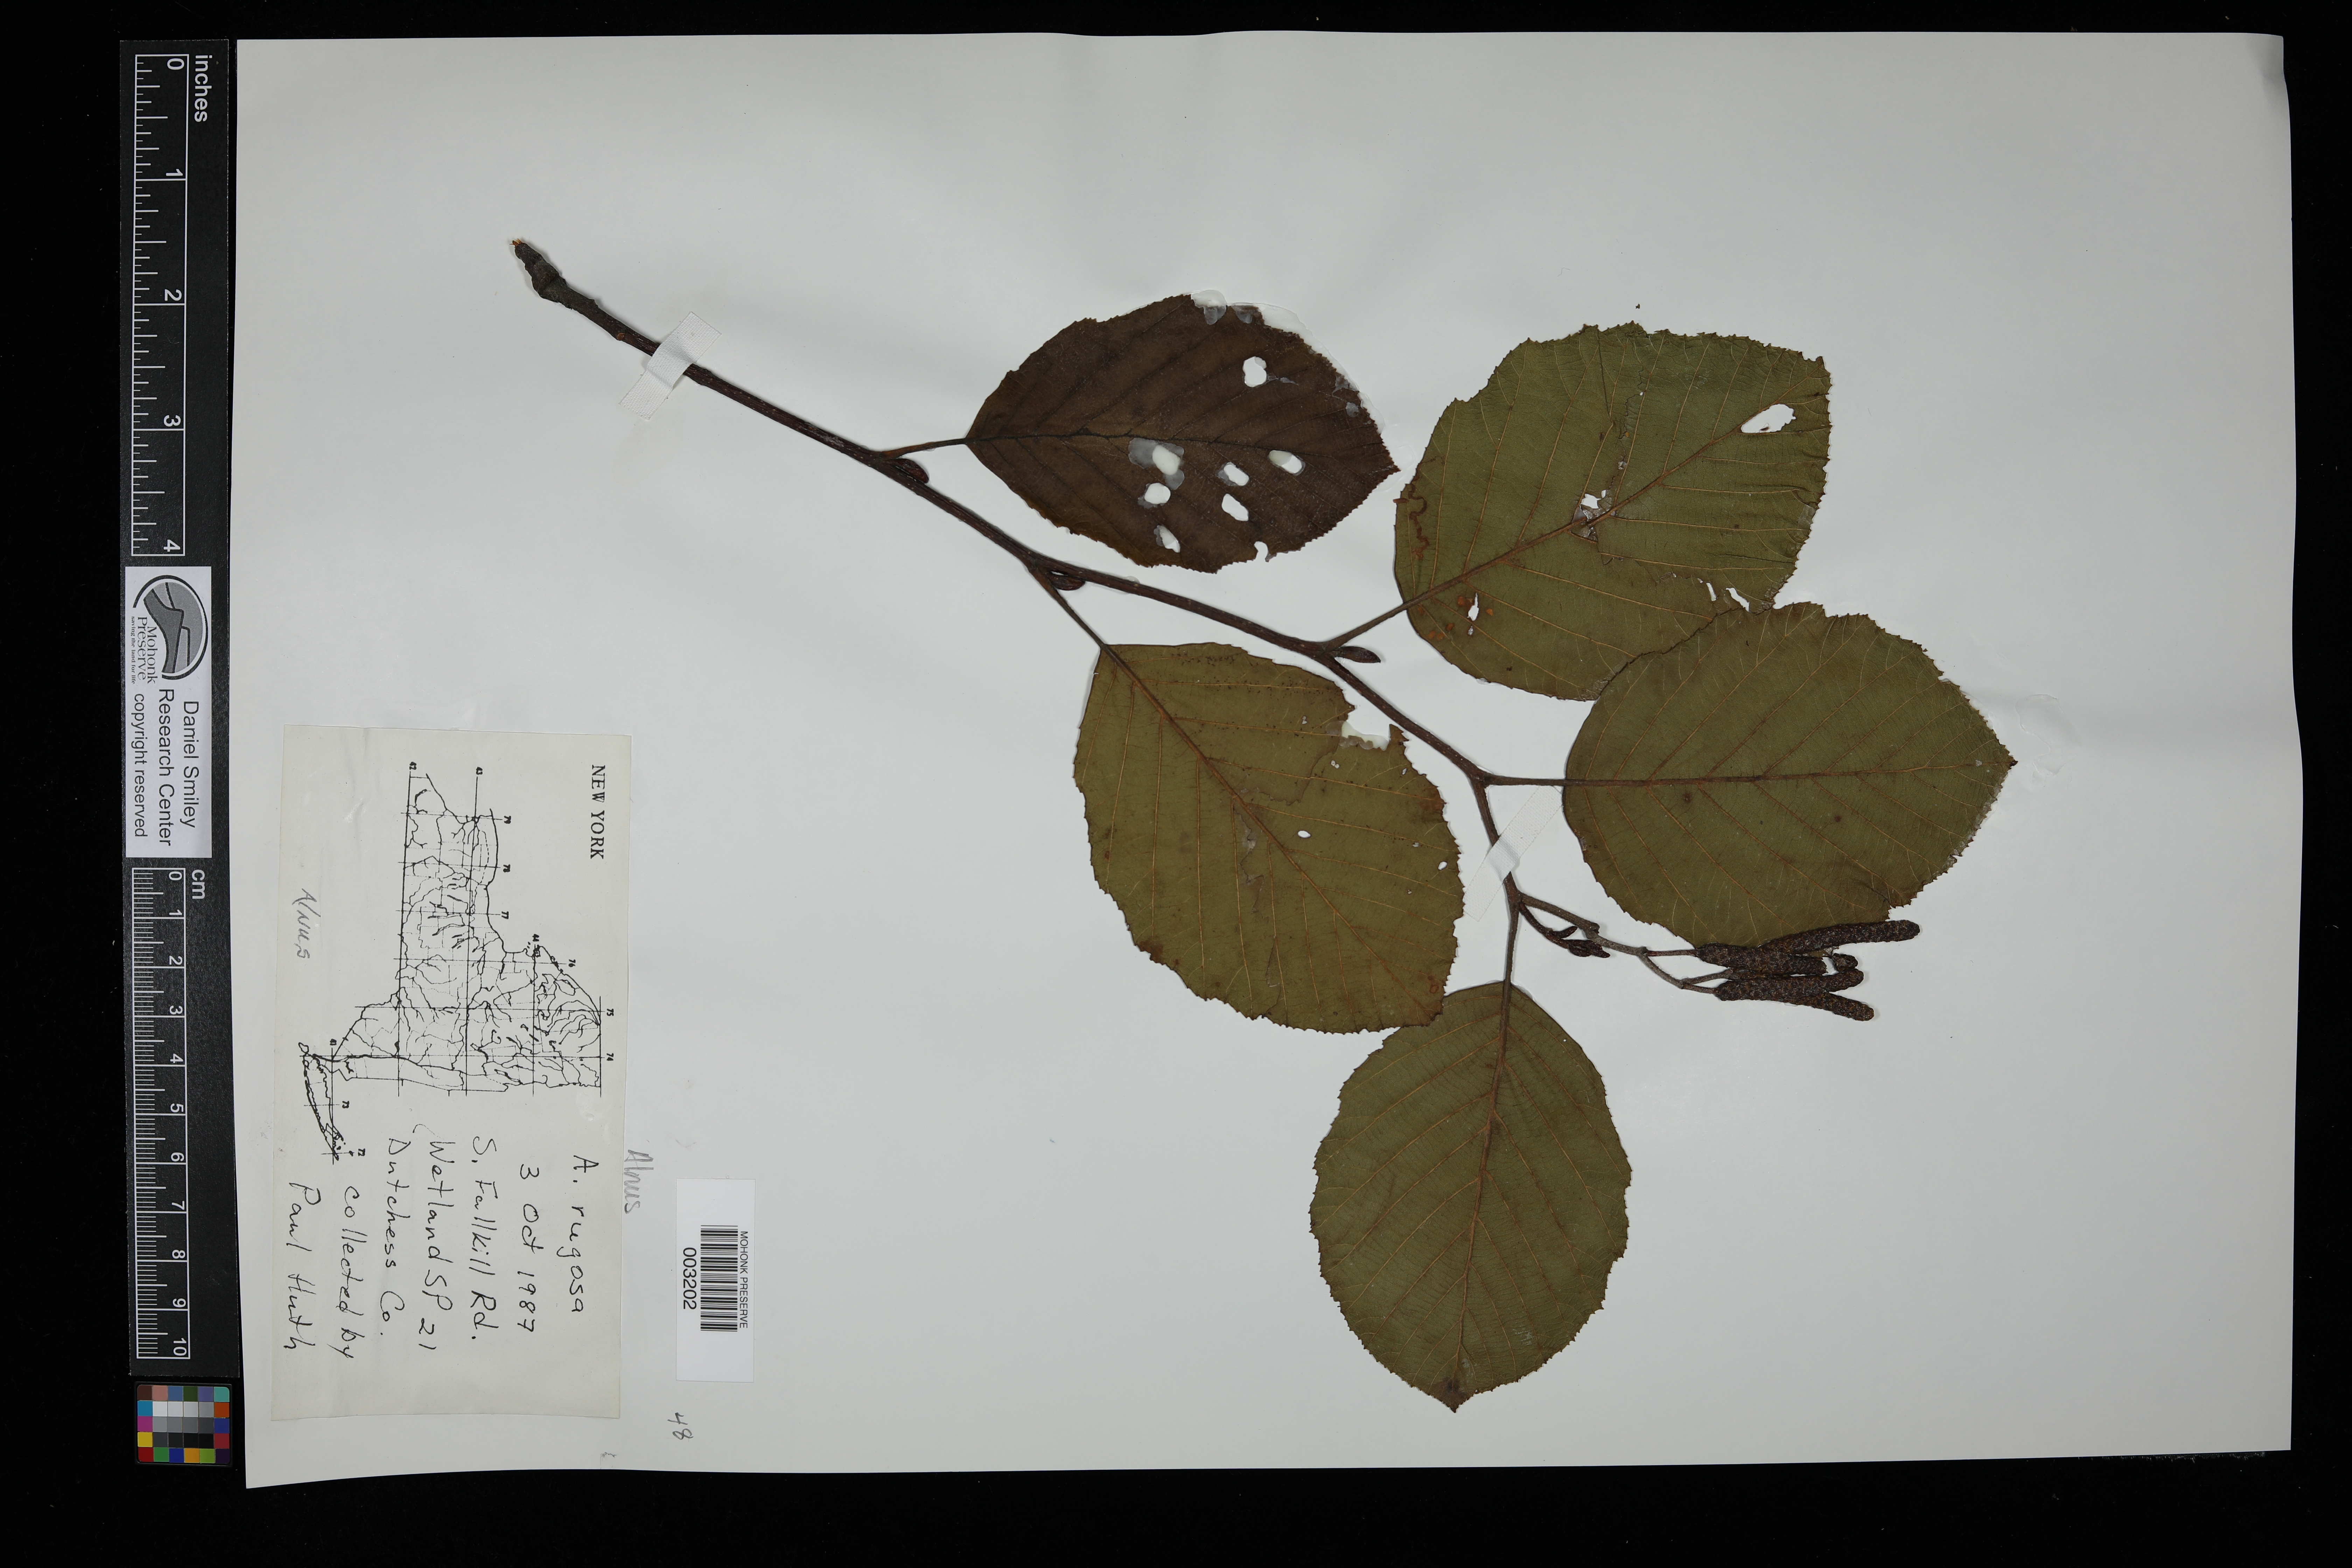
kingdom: Plantae
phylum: Tracheophyta
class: Magnoliopsida
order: Fagales
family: Betulaceae
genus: Alnus
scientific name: Alnus incana
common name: Grey alder
